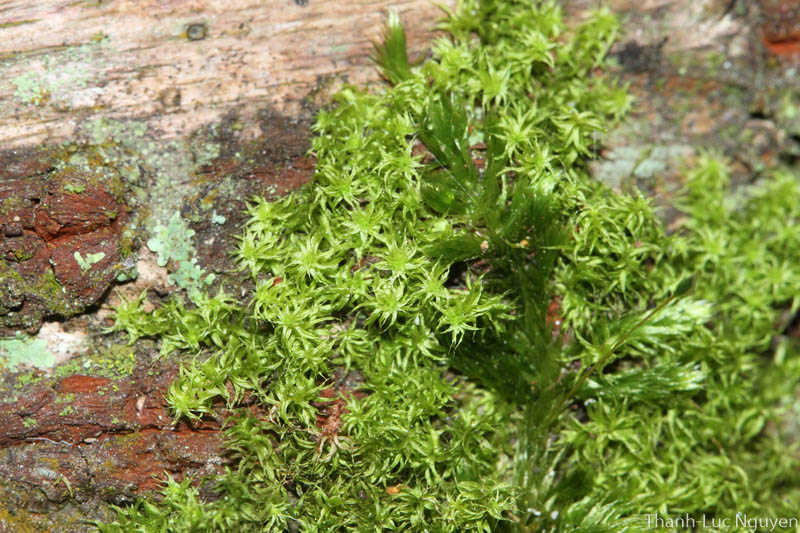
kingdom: Plantae
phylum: Bryophyta
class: Bryopsida
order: Hypnales
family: Meteoriaceae
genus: Meteoriopsis
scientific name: Meteoriopsis reclinata
